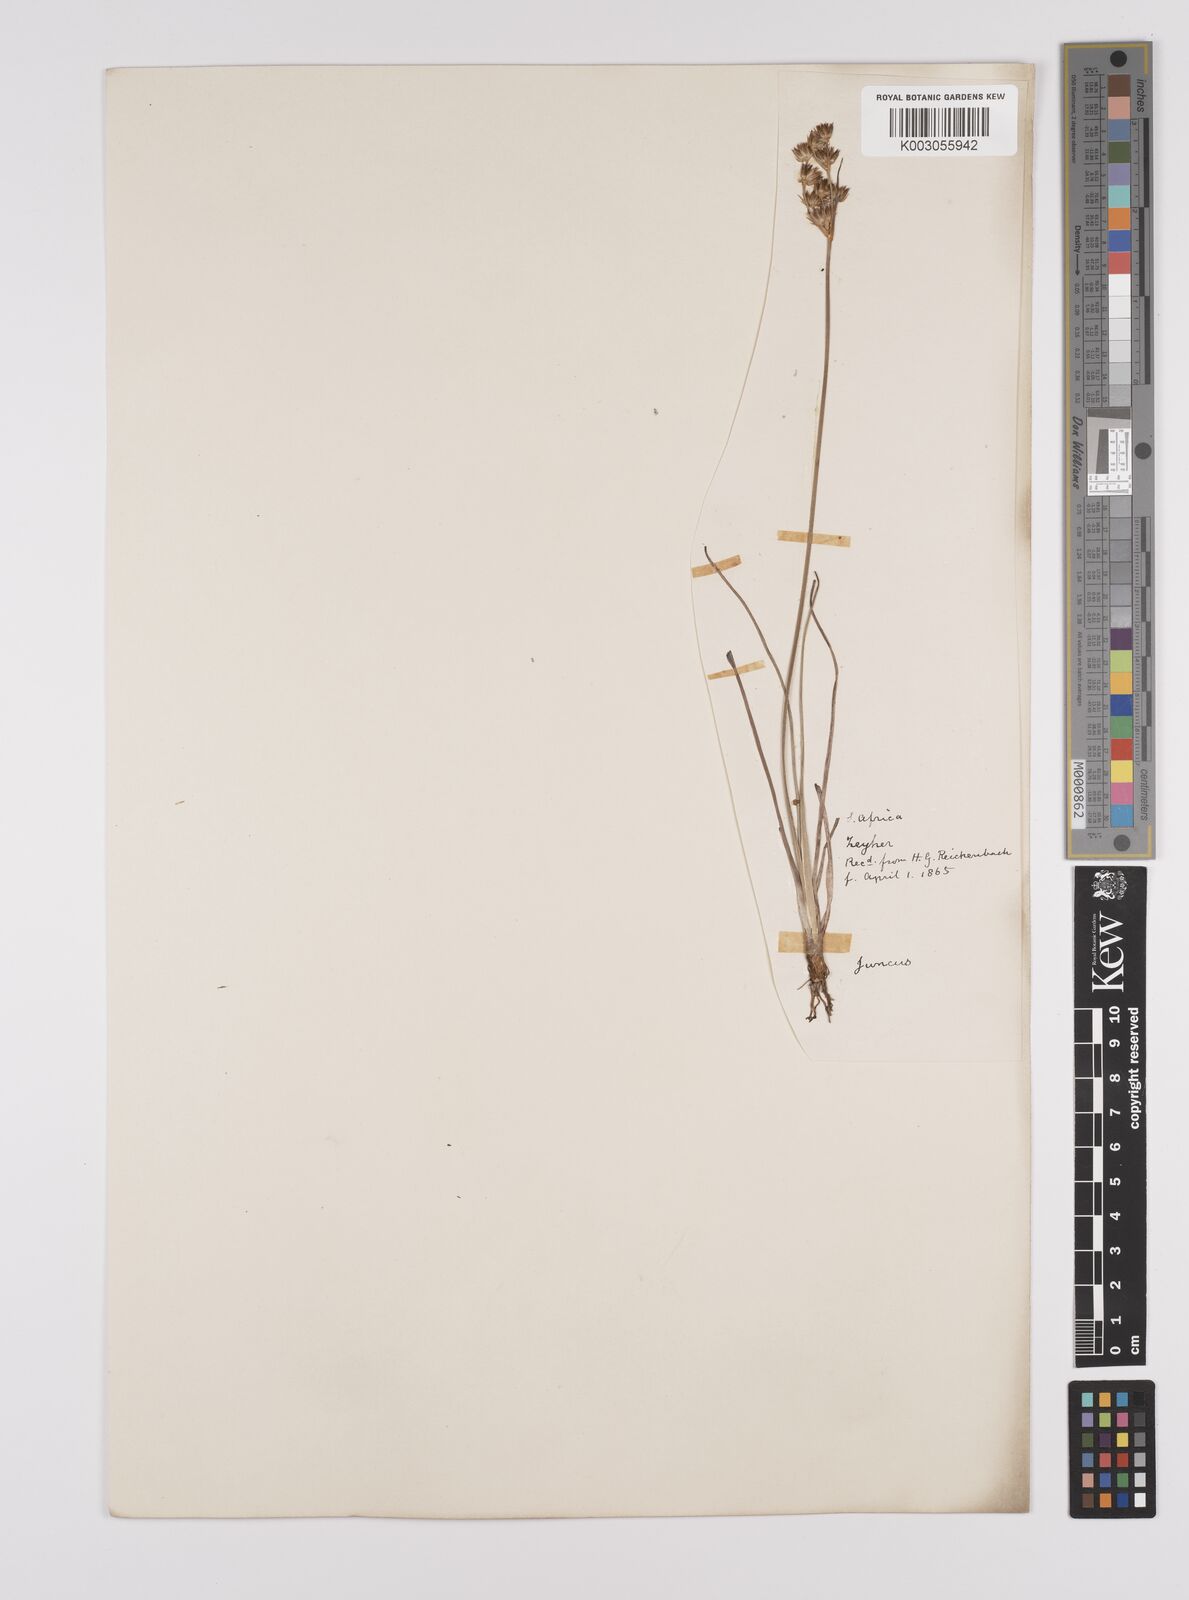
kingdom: Plantae
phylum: Tracheophyta
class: Liliopsida
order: Poales
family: Juncaceae
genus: Juncus
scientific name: Juncus capensis
